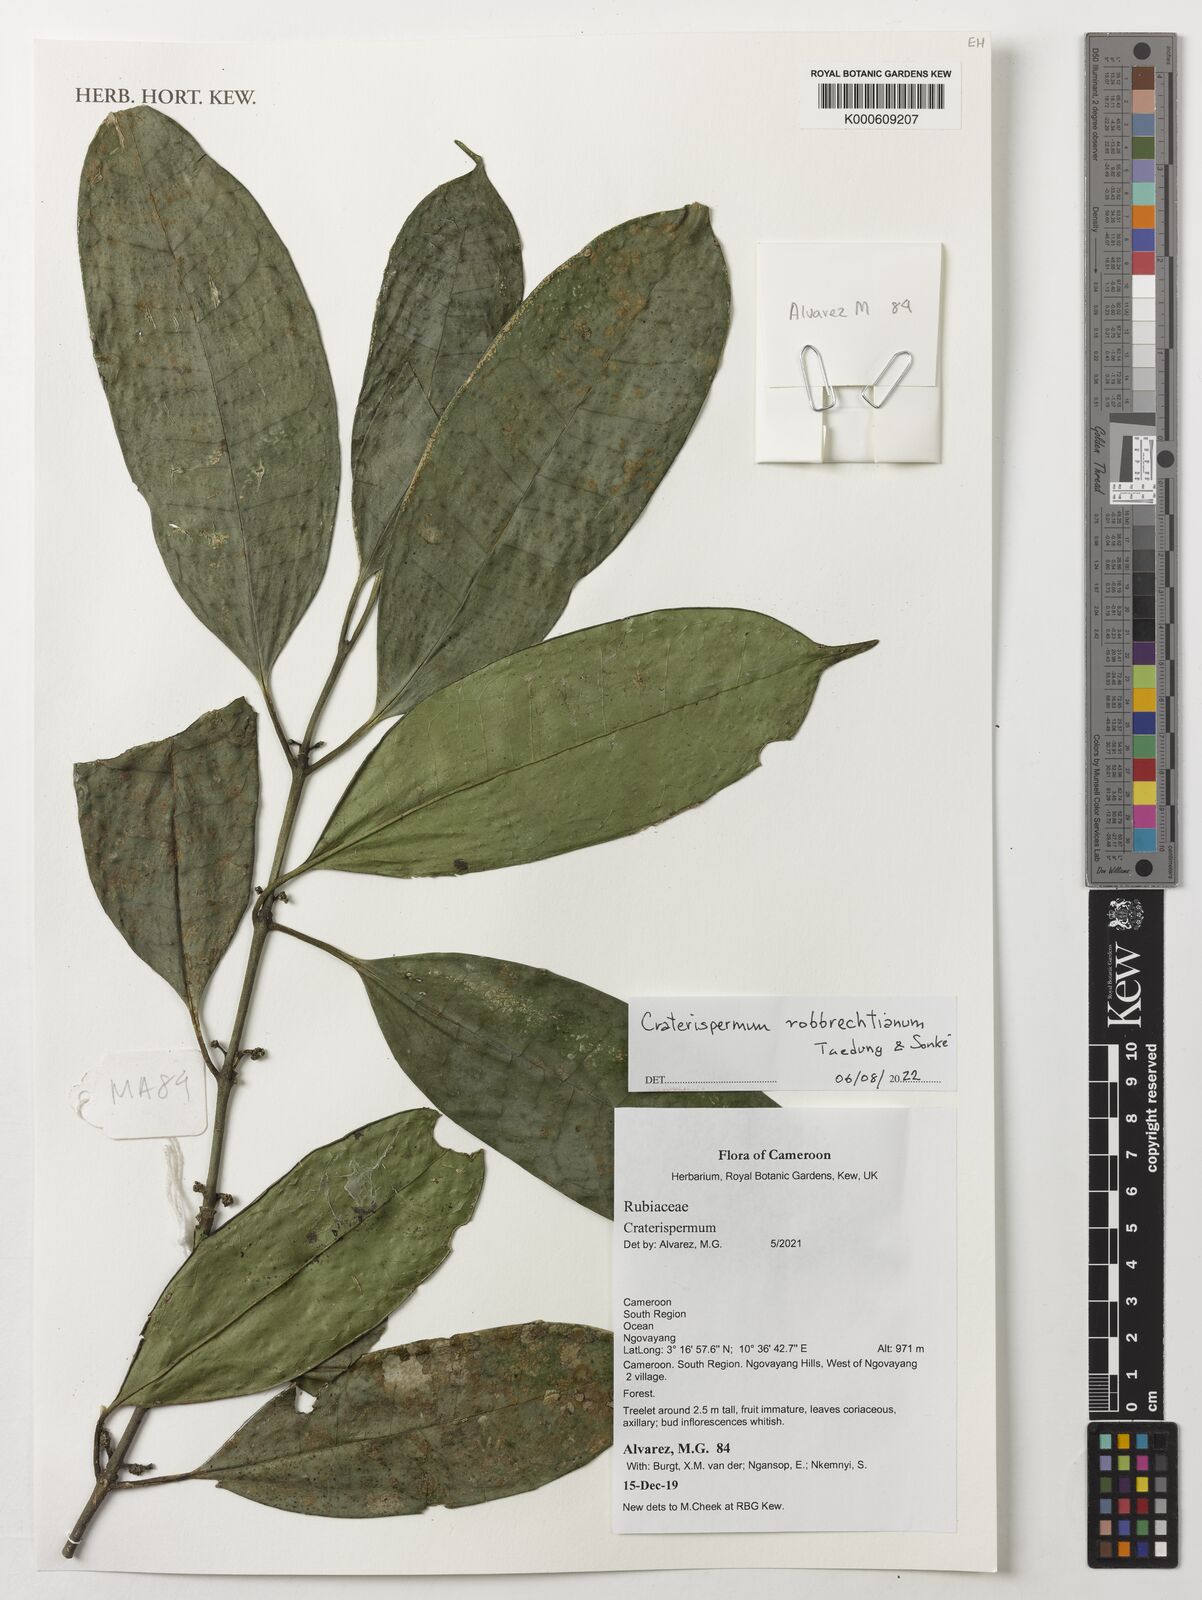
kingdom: Plantae
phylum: Tracheophyta
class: Magnoliopsida
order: Gentianales
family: Rubiaceae
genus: Craterispermum
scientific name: Craterispermum robbrechtianum
